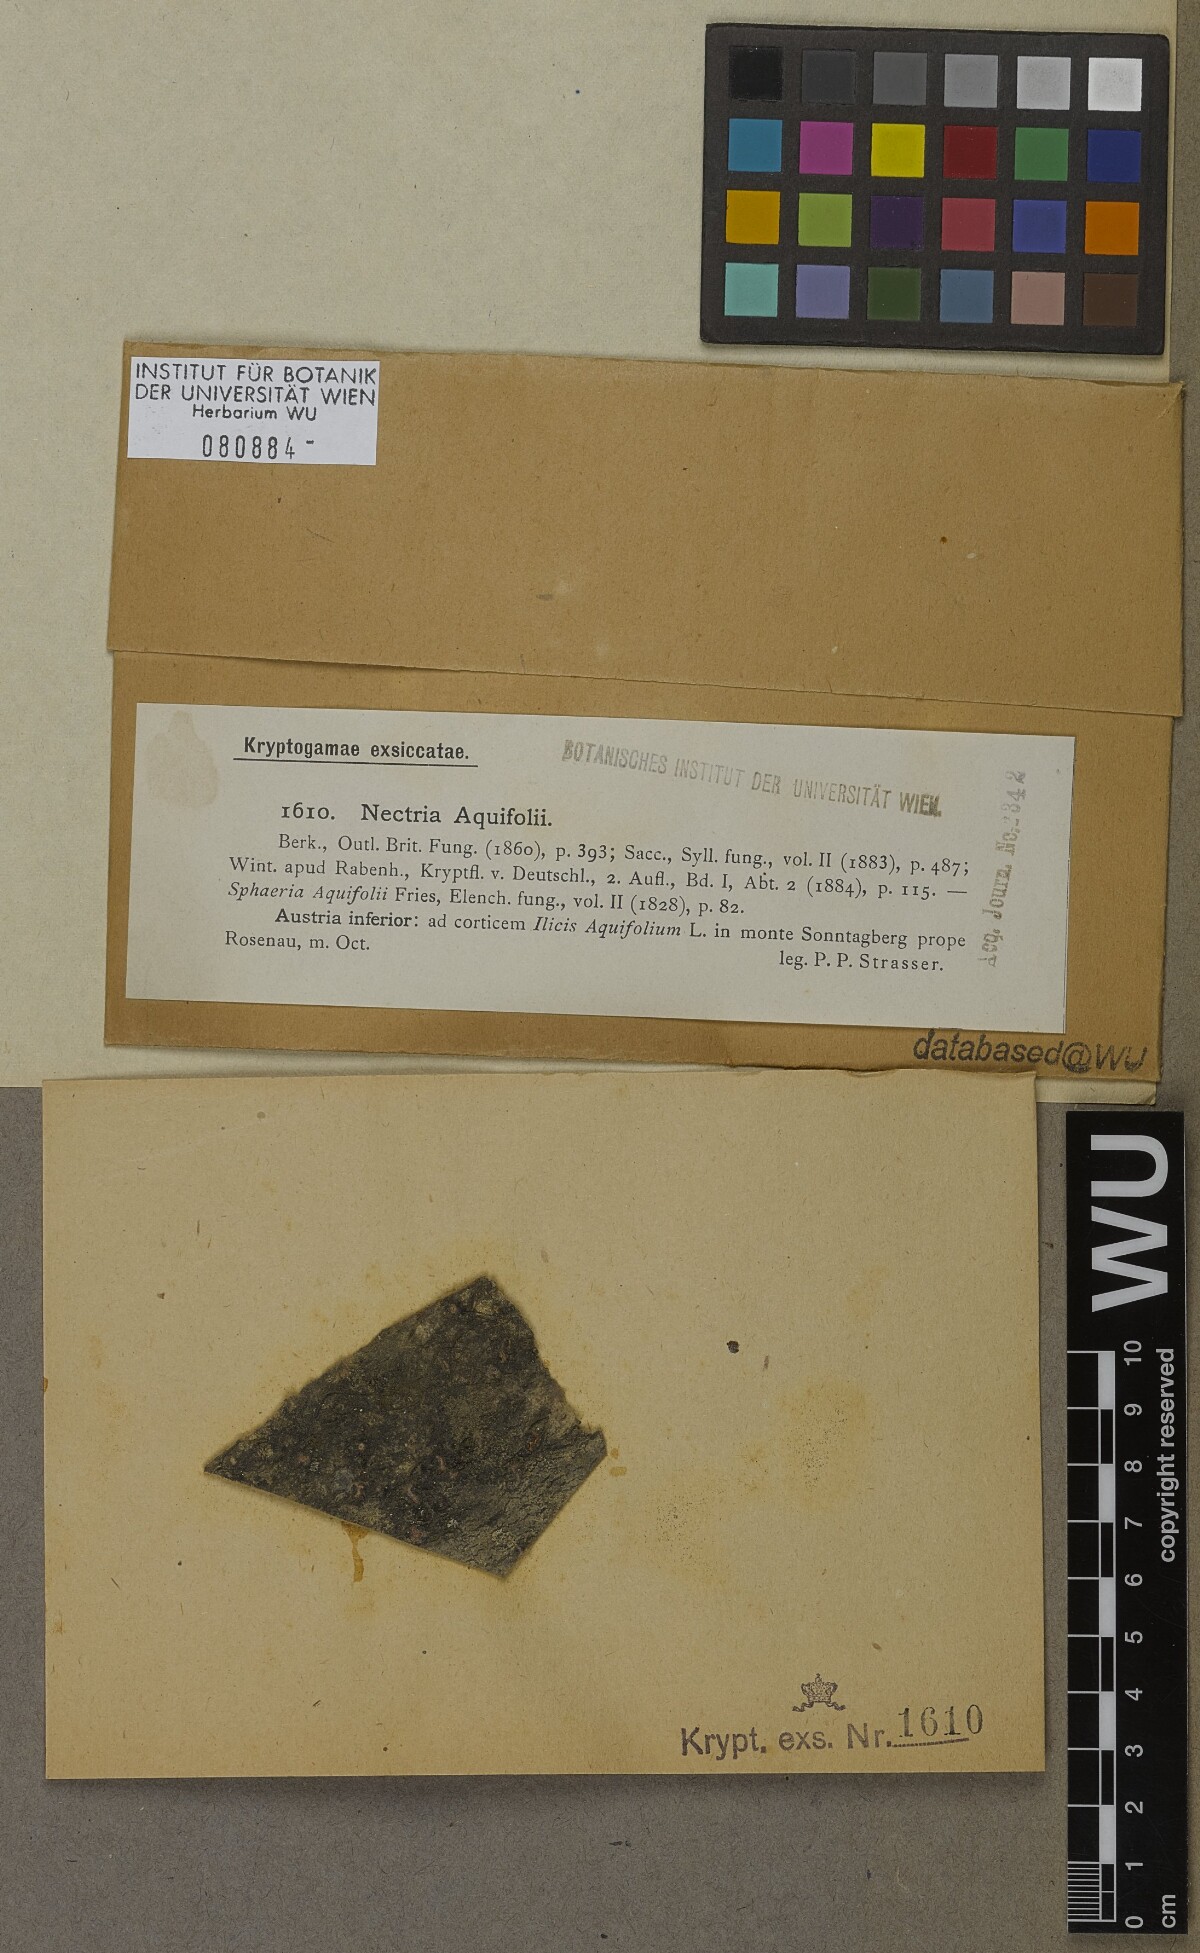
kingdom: Fungi
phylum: Ascomycota
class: Sordariomycetes
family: Thyridiaceae
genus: Thyronectria
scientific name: Thyronectria aquifolii
